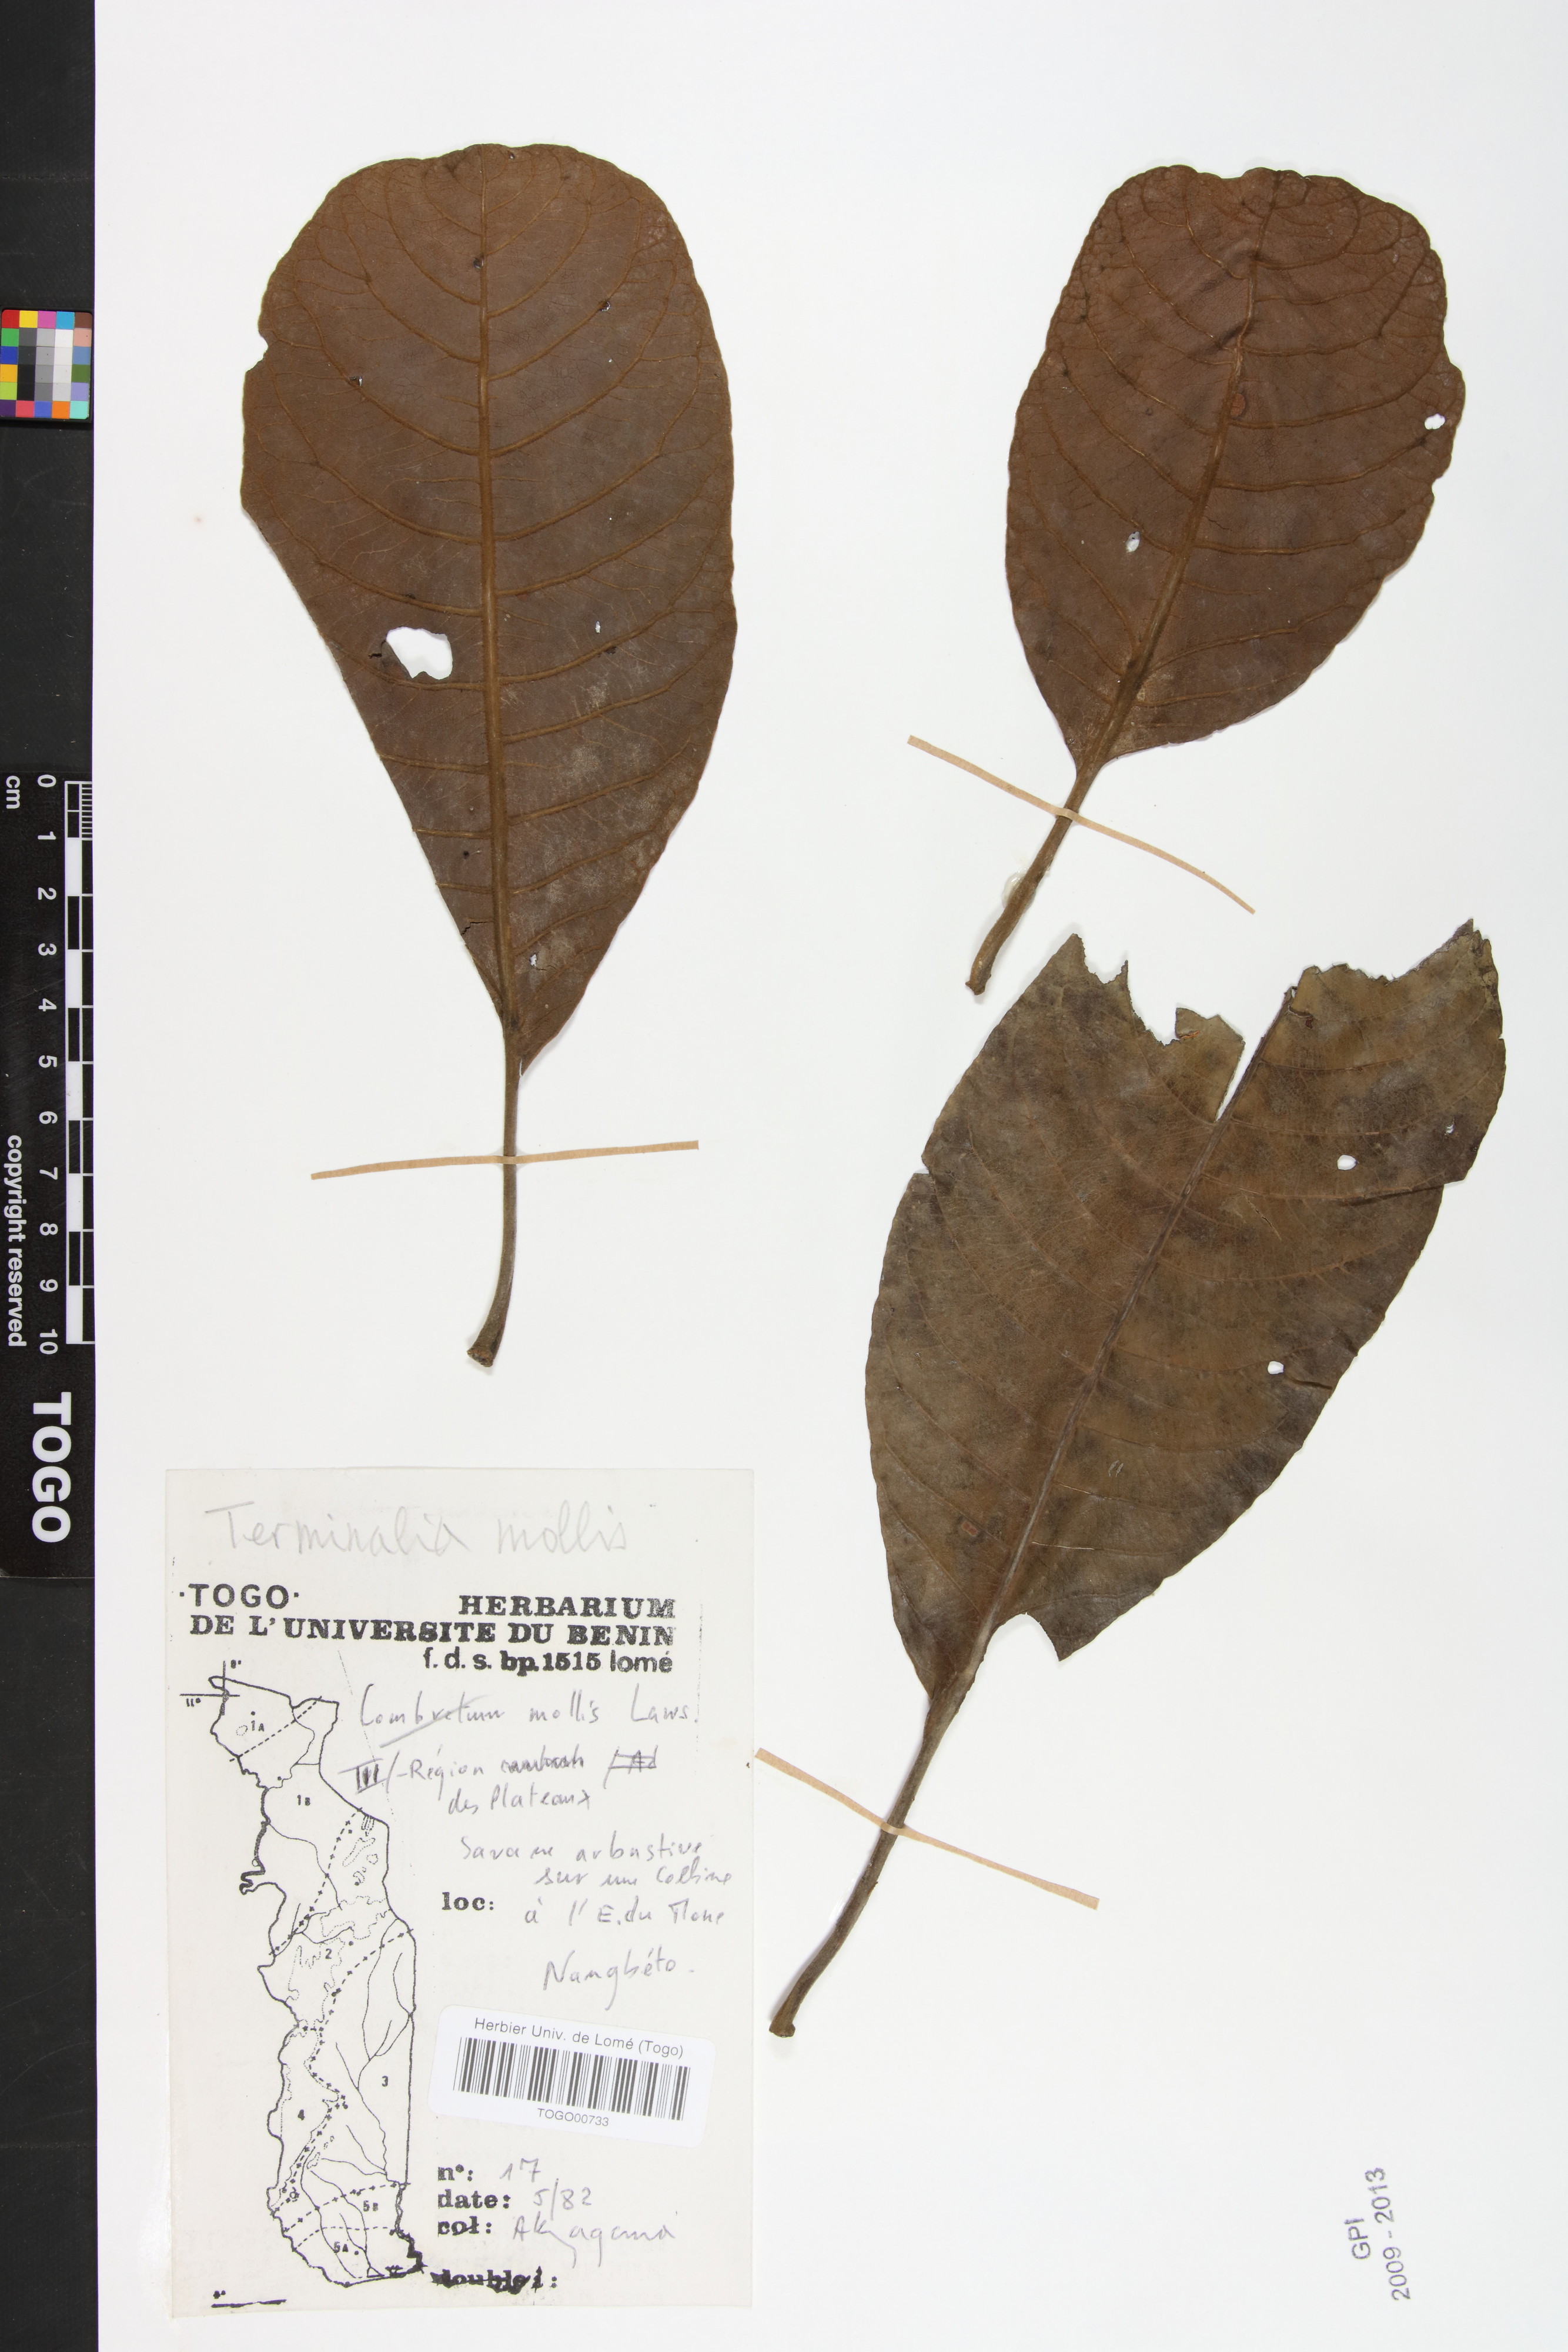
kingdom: Plantae
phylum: Tracheophyta
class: Magnoliopsida
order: Myrtales
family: Combretaceae
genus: Terminalia
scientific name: Terminalia mollis
